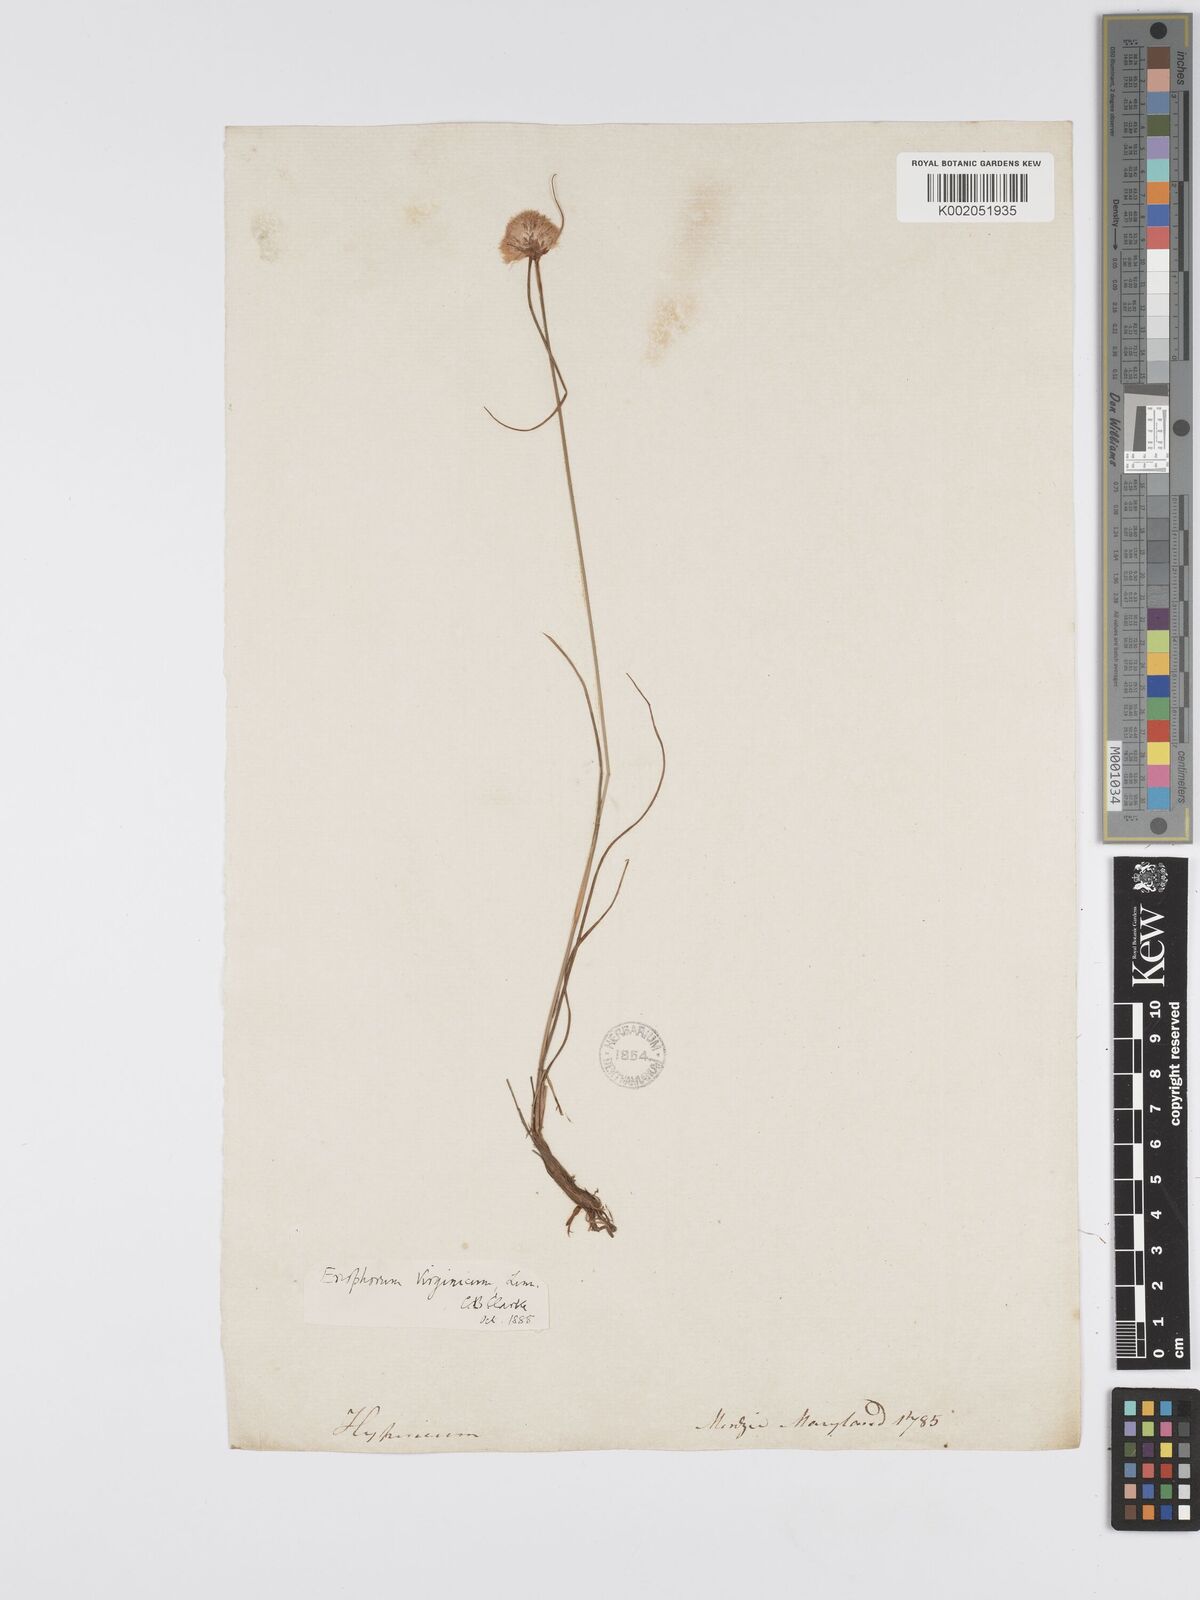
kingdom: Plantae
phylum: Tracheophyta
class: Liliopsida
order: Poales
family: Cyperaceae
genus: Eriophorum
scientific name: Eriophorum virginicum
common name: Tawny cottongrass
